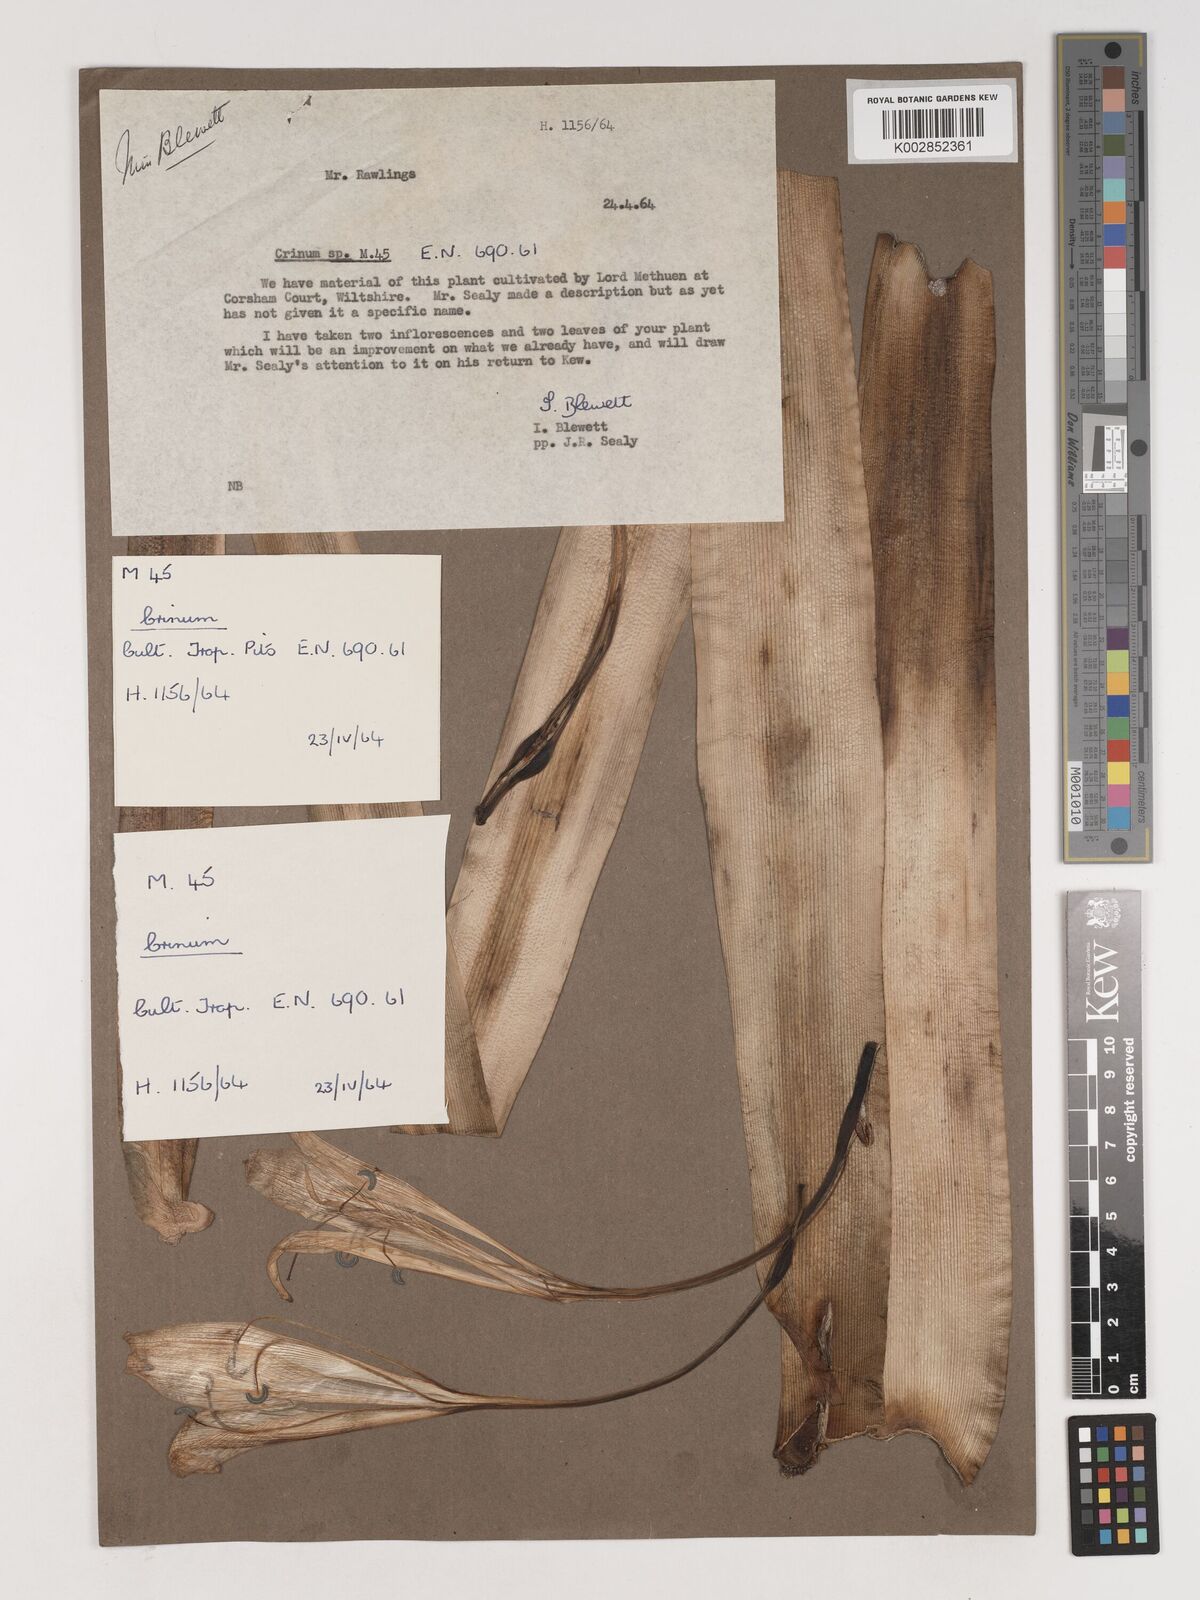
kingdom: Plantae
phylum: Tracheophyta
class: Liliopsida
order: Asparagales
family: Amaryllidaceae
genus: Crinum
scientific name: Crinum
